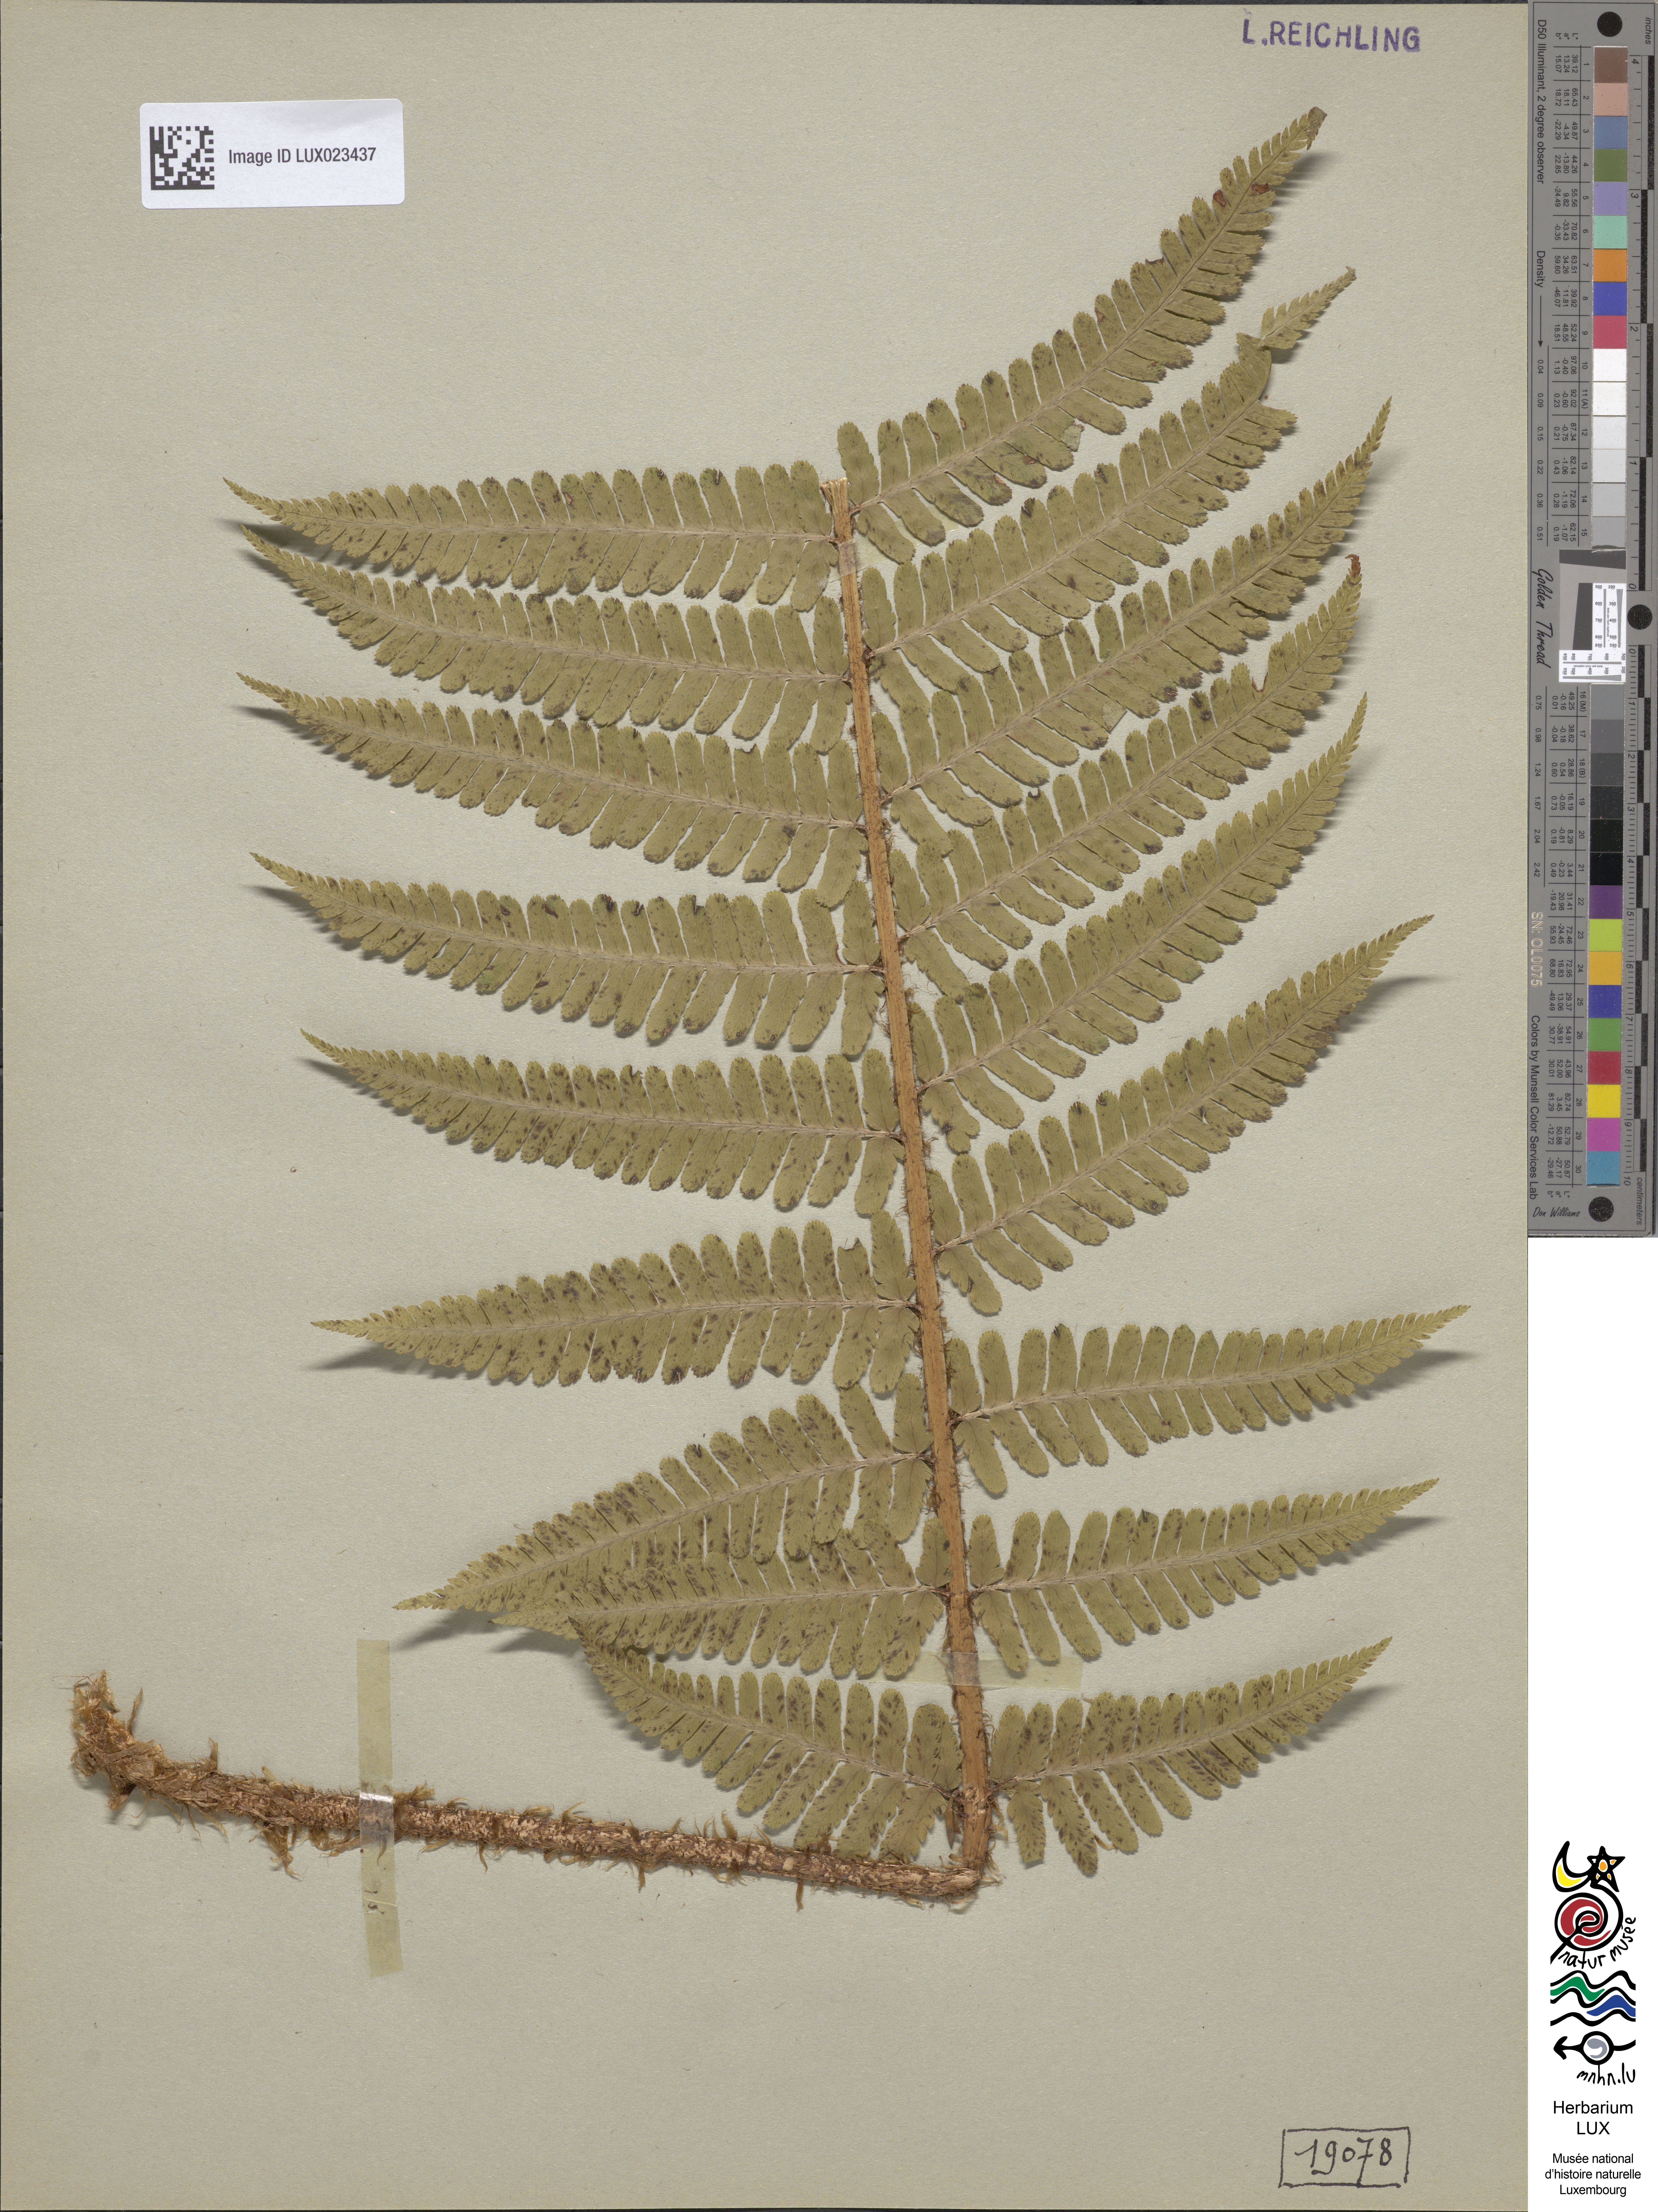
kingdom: Plantae
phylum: Tracheophyta
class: Polypodiopsida
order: Polypodiales
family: Dryopteridaceae
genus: Dryopteris
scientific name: Dryopteris borreri
